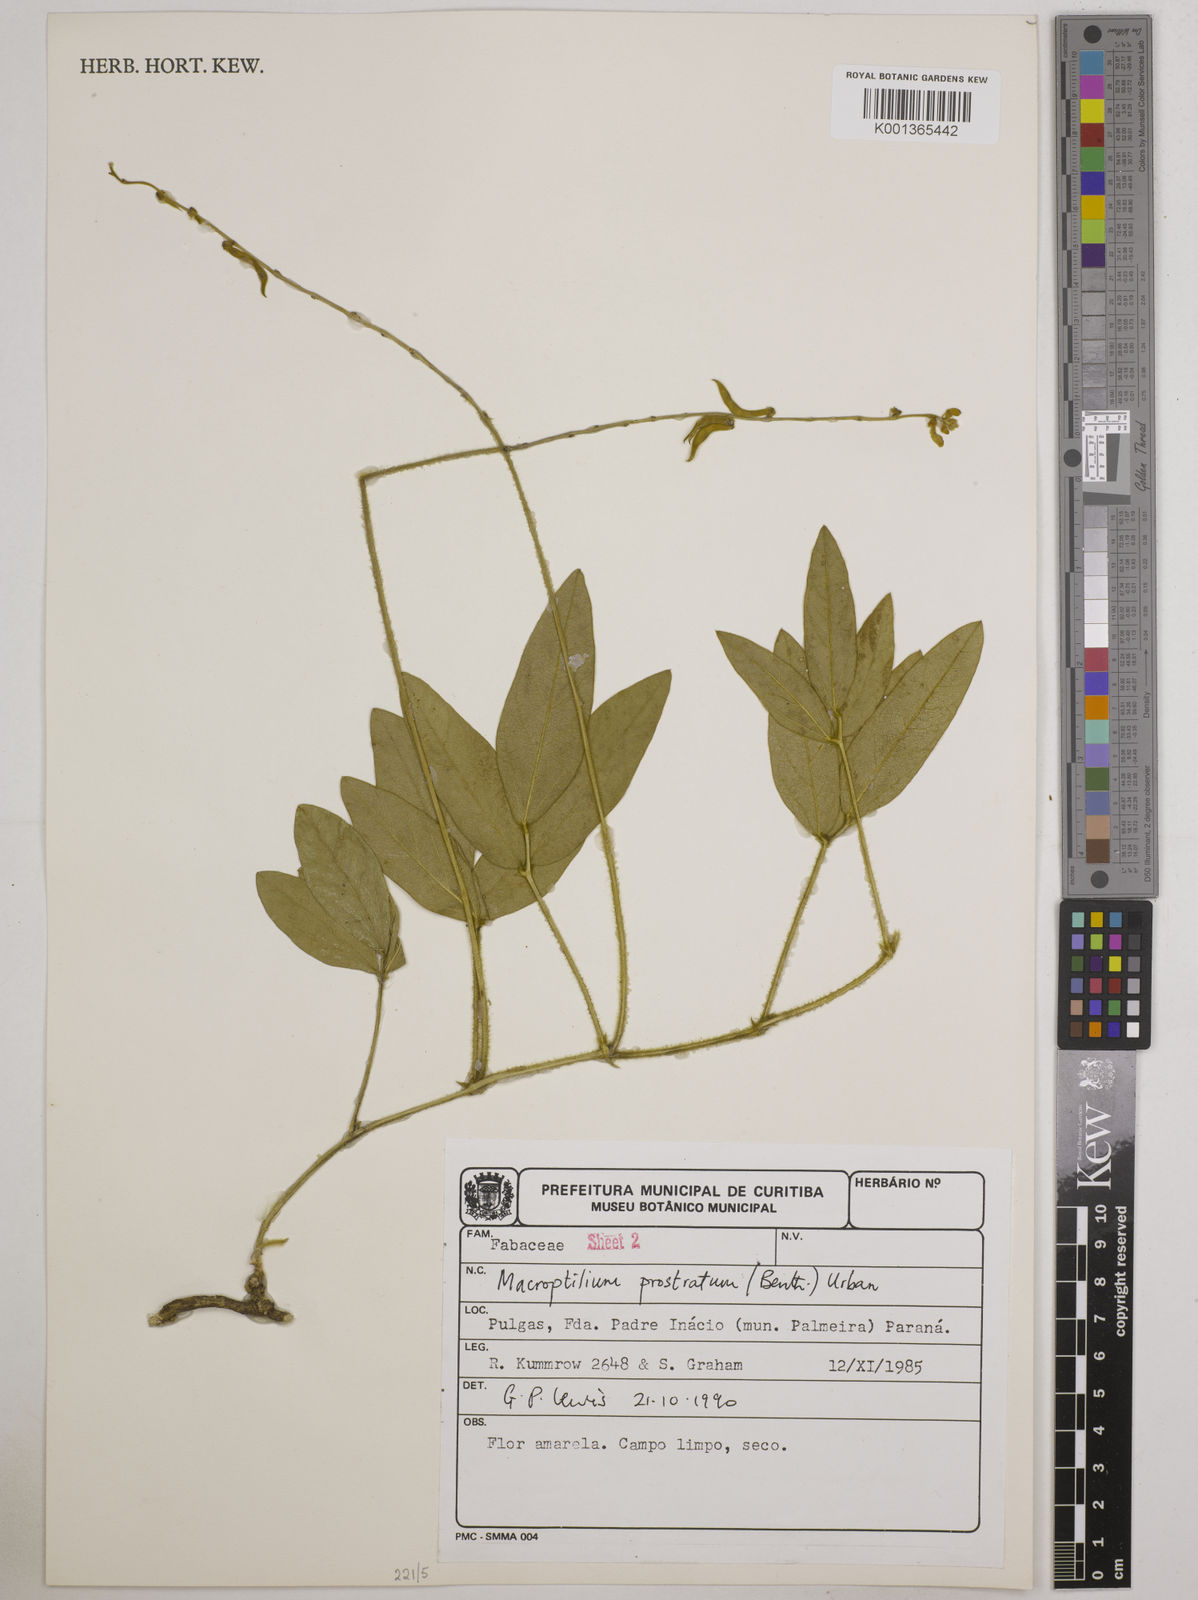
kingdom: Plantae
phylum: Tracheophyta
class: Magnoliopsida
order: Fabales
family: Fabaceae
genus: Macroptilium
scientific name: Macroptilium prostratum
